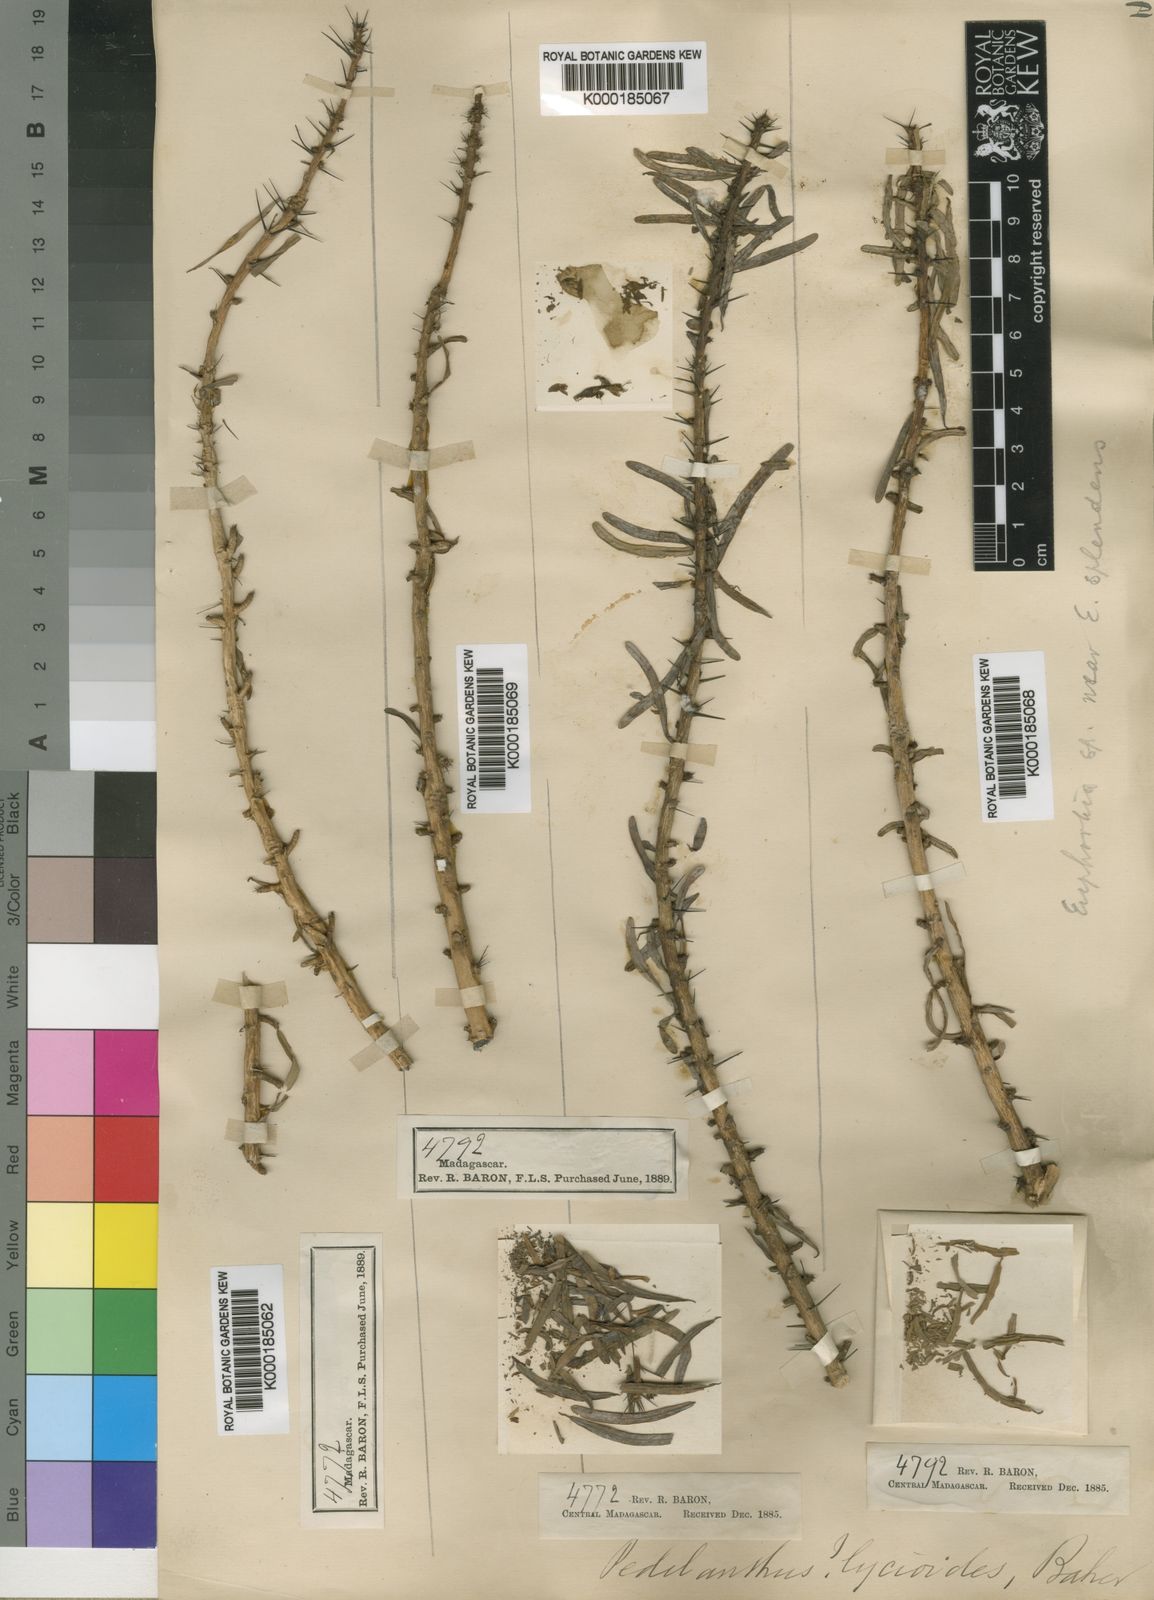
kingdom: Plantae
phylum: Tracheophyta
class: Magnoliopsida
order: Malpighiales
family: Euphorbiaceae
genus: Euphorbia
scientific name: Euphorbia pedilanthoides
